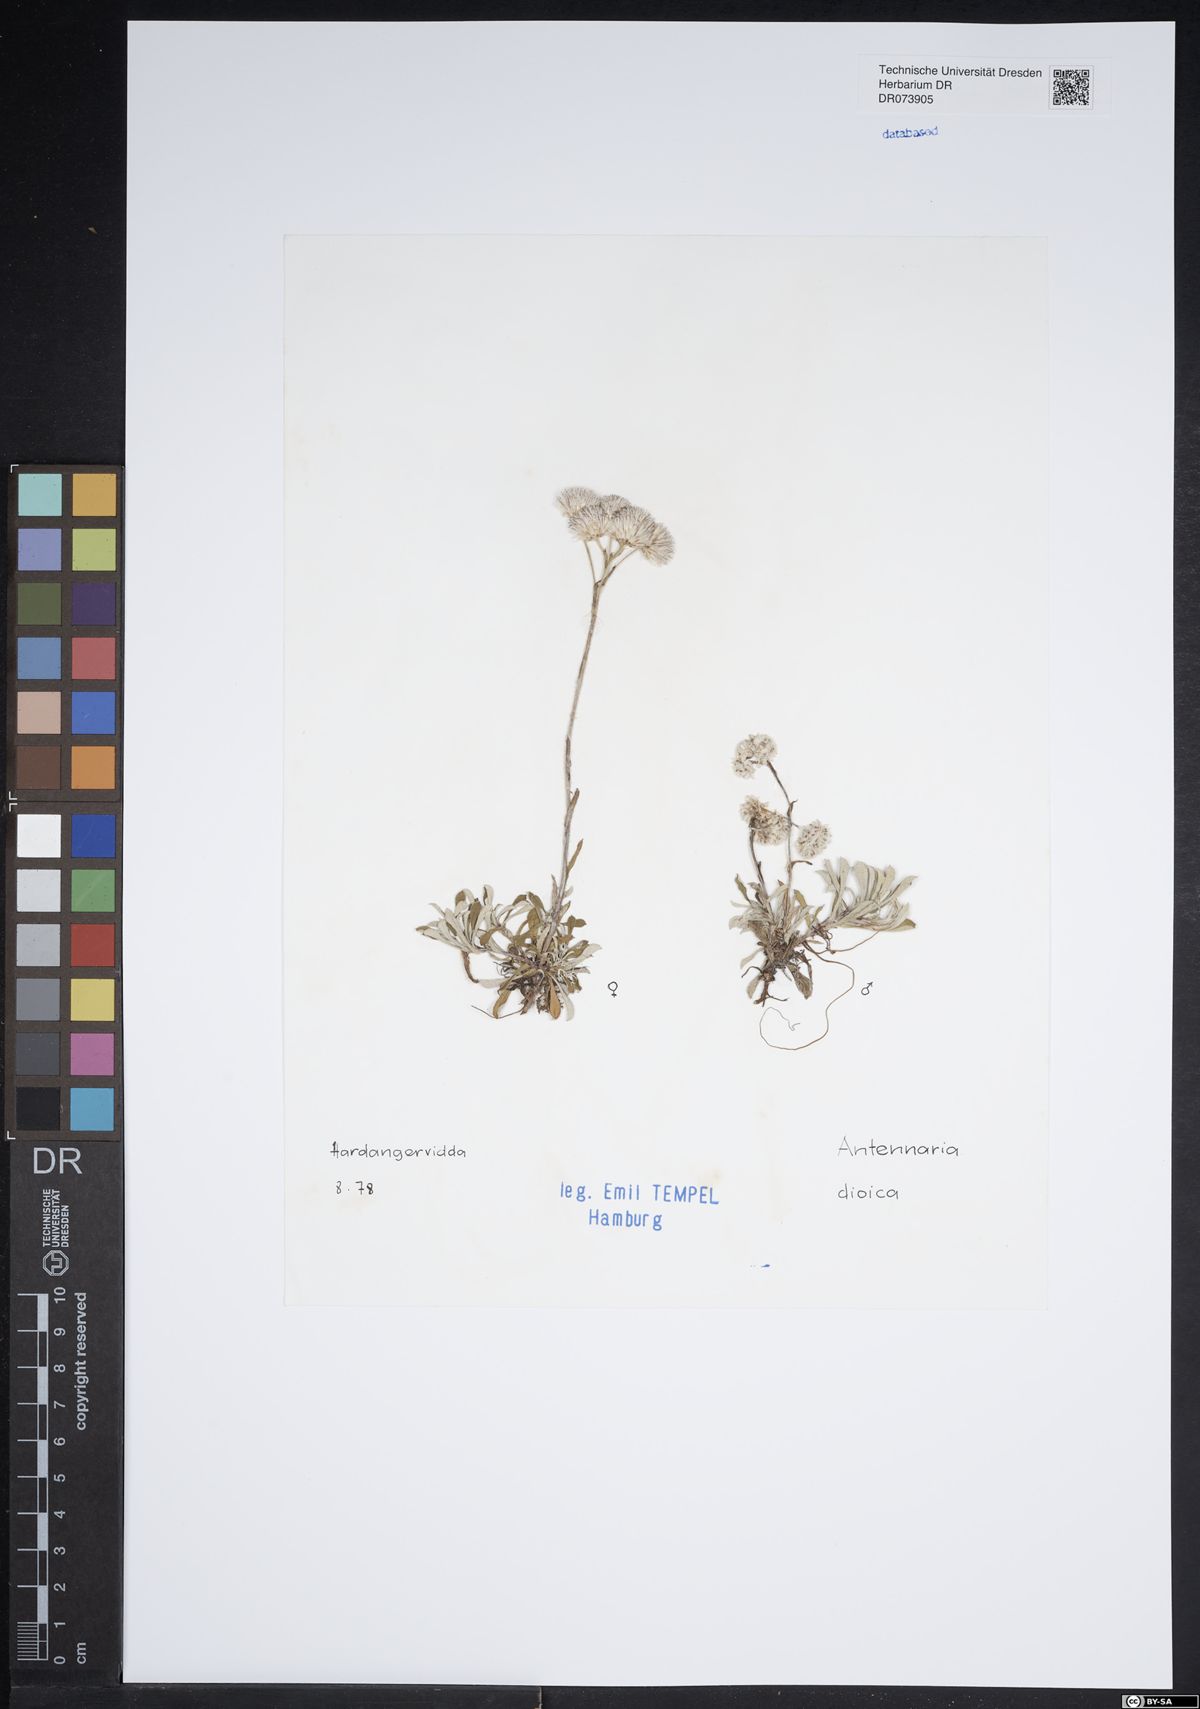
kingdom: Plantae
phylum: Tracheophyta
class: Magnoliopsida
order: Asterales
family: Asteraceae
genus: Antennaria
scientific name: Antennaria dioica
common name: Mountain everlasting
